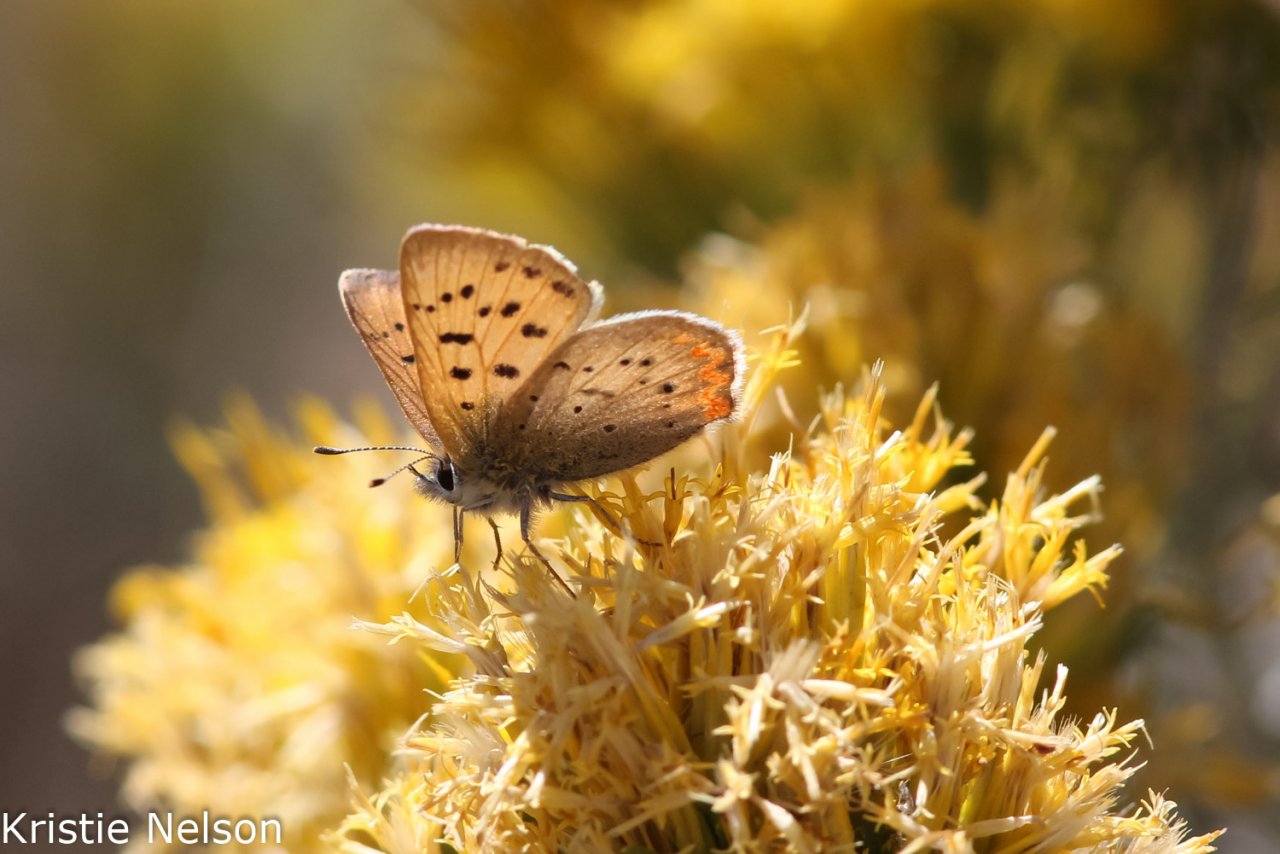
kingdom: Animalia
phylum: Arthropoda
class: Insecta
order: Lepidoptera
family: Sesiidae
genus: Sesia
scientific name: Sesia Lycaena helloides
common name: Purplish Copper
